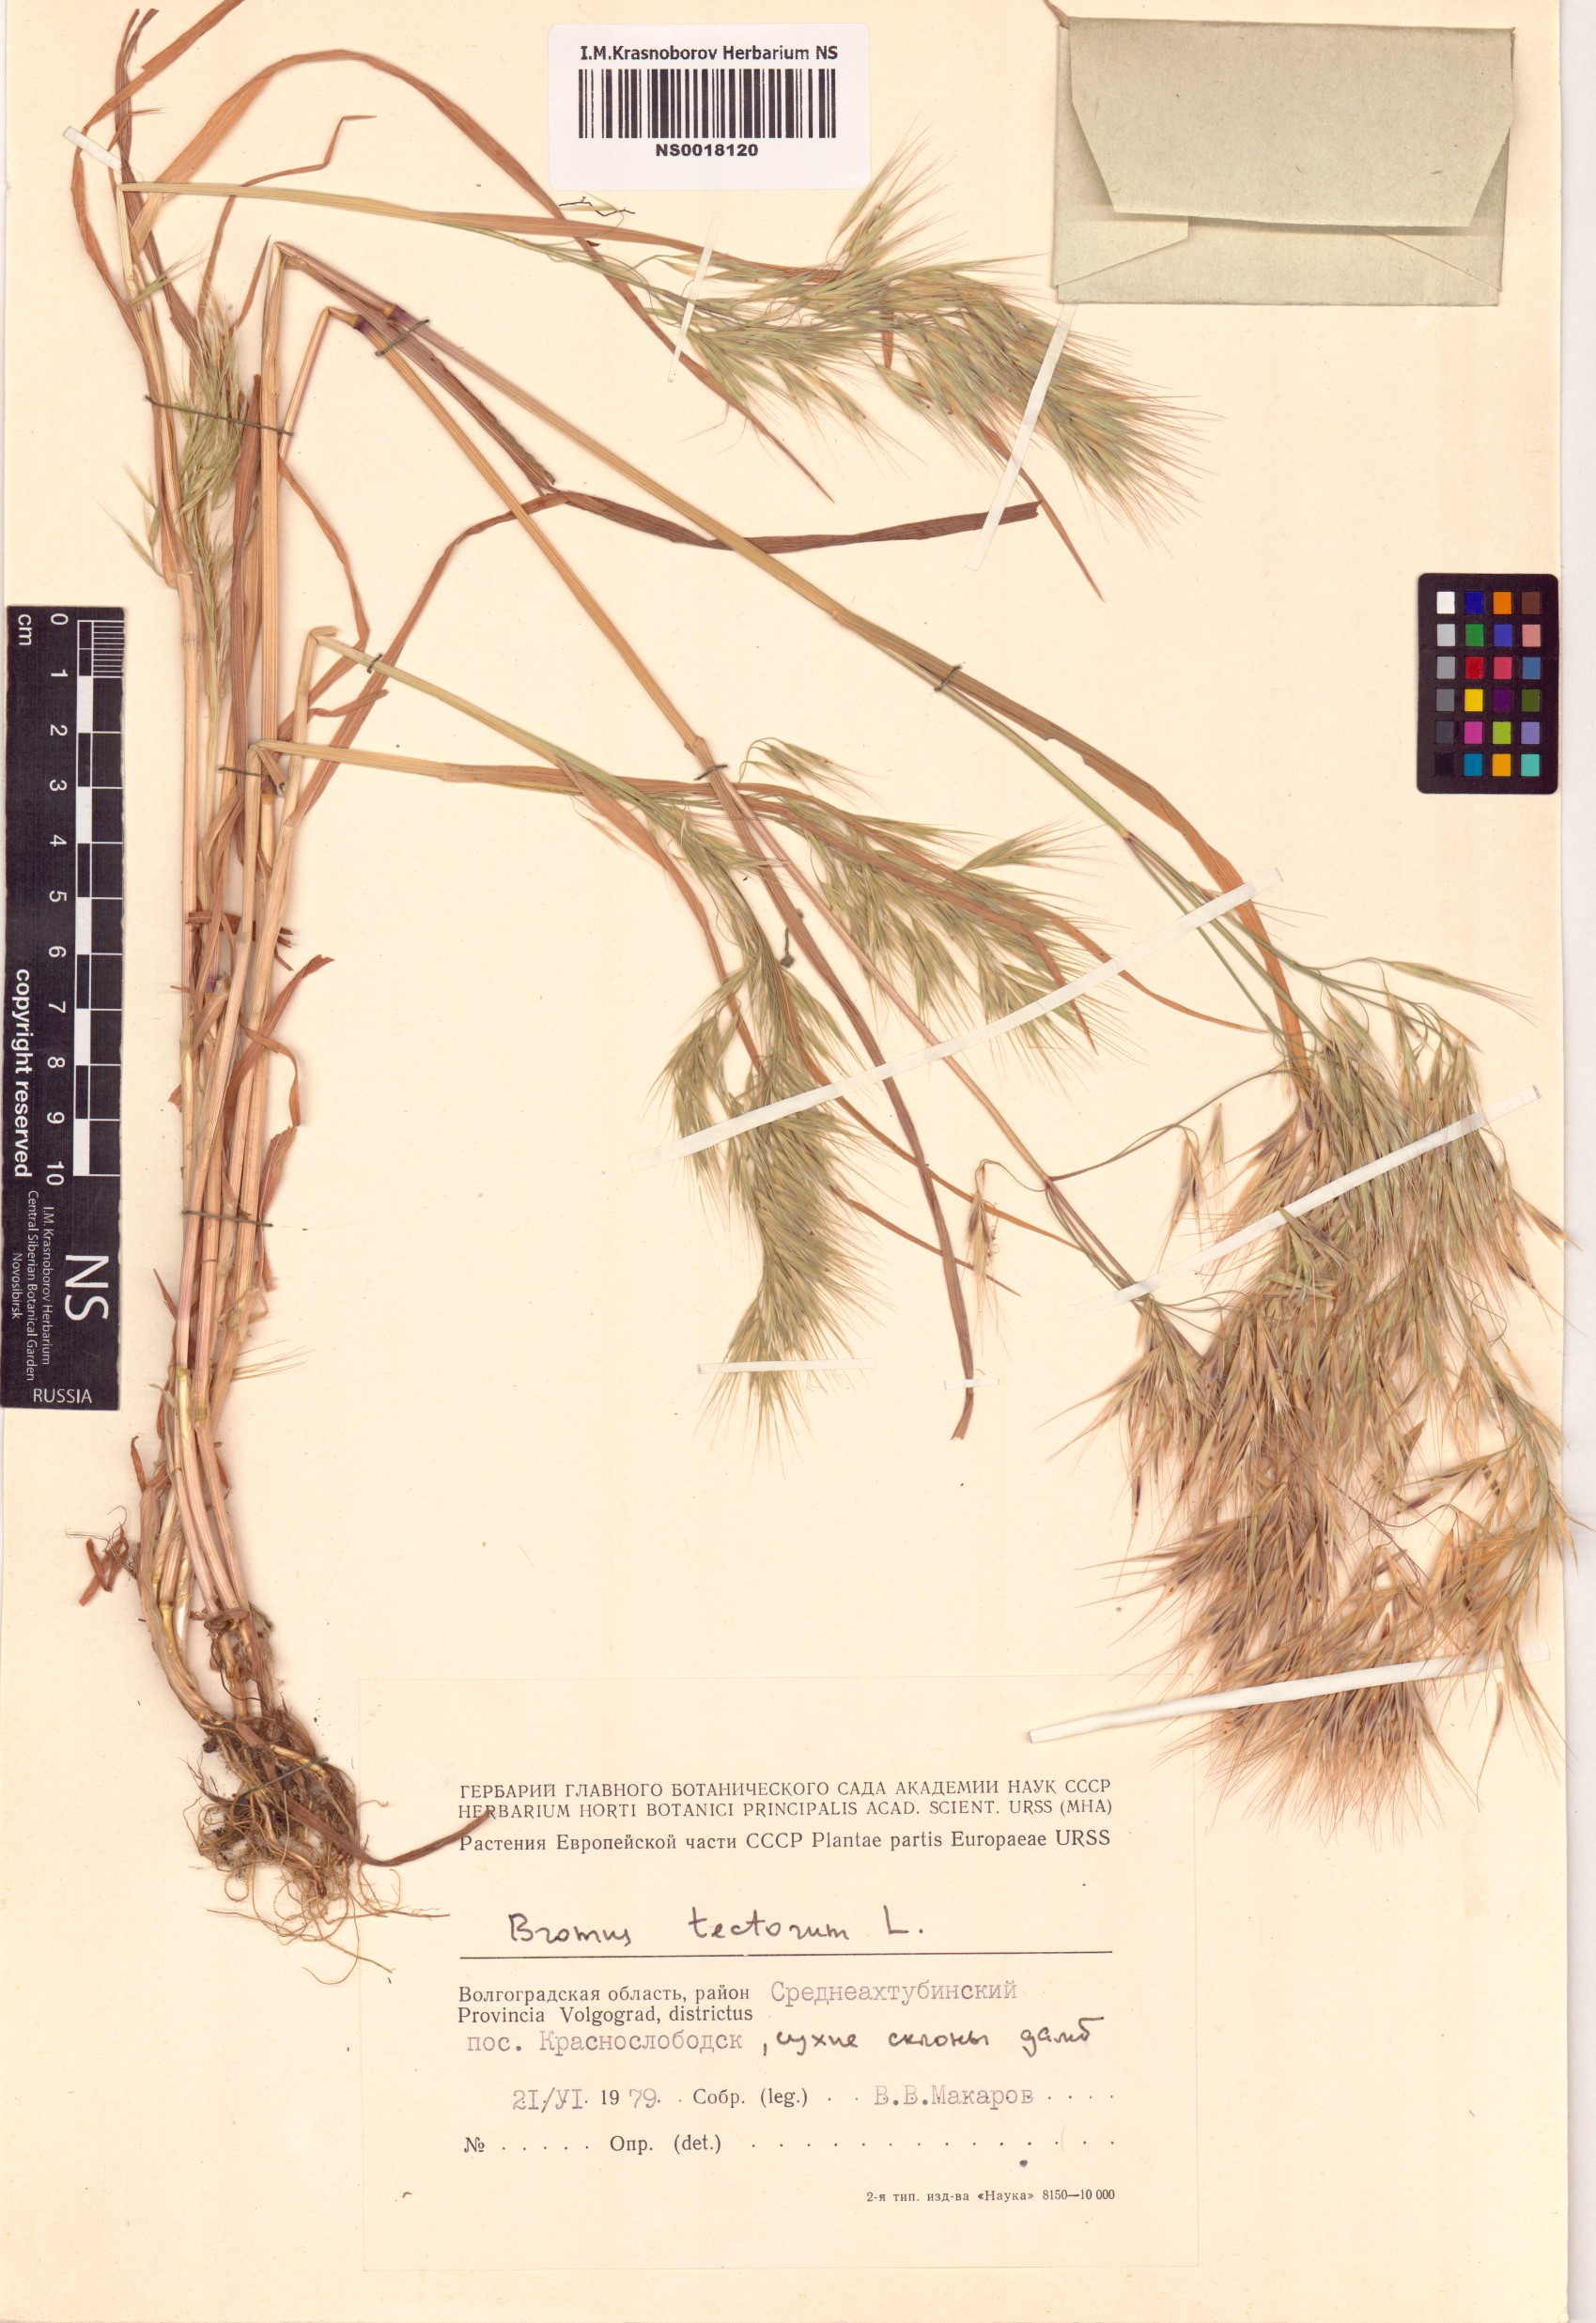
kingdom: Plantae
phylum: Tracheophyta
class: Liliopsida
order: Poales
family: Poaceae
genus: Bromus
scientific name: Bromus tectorum
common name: Cheatgrass
